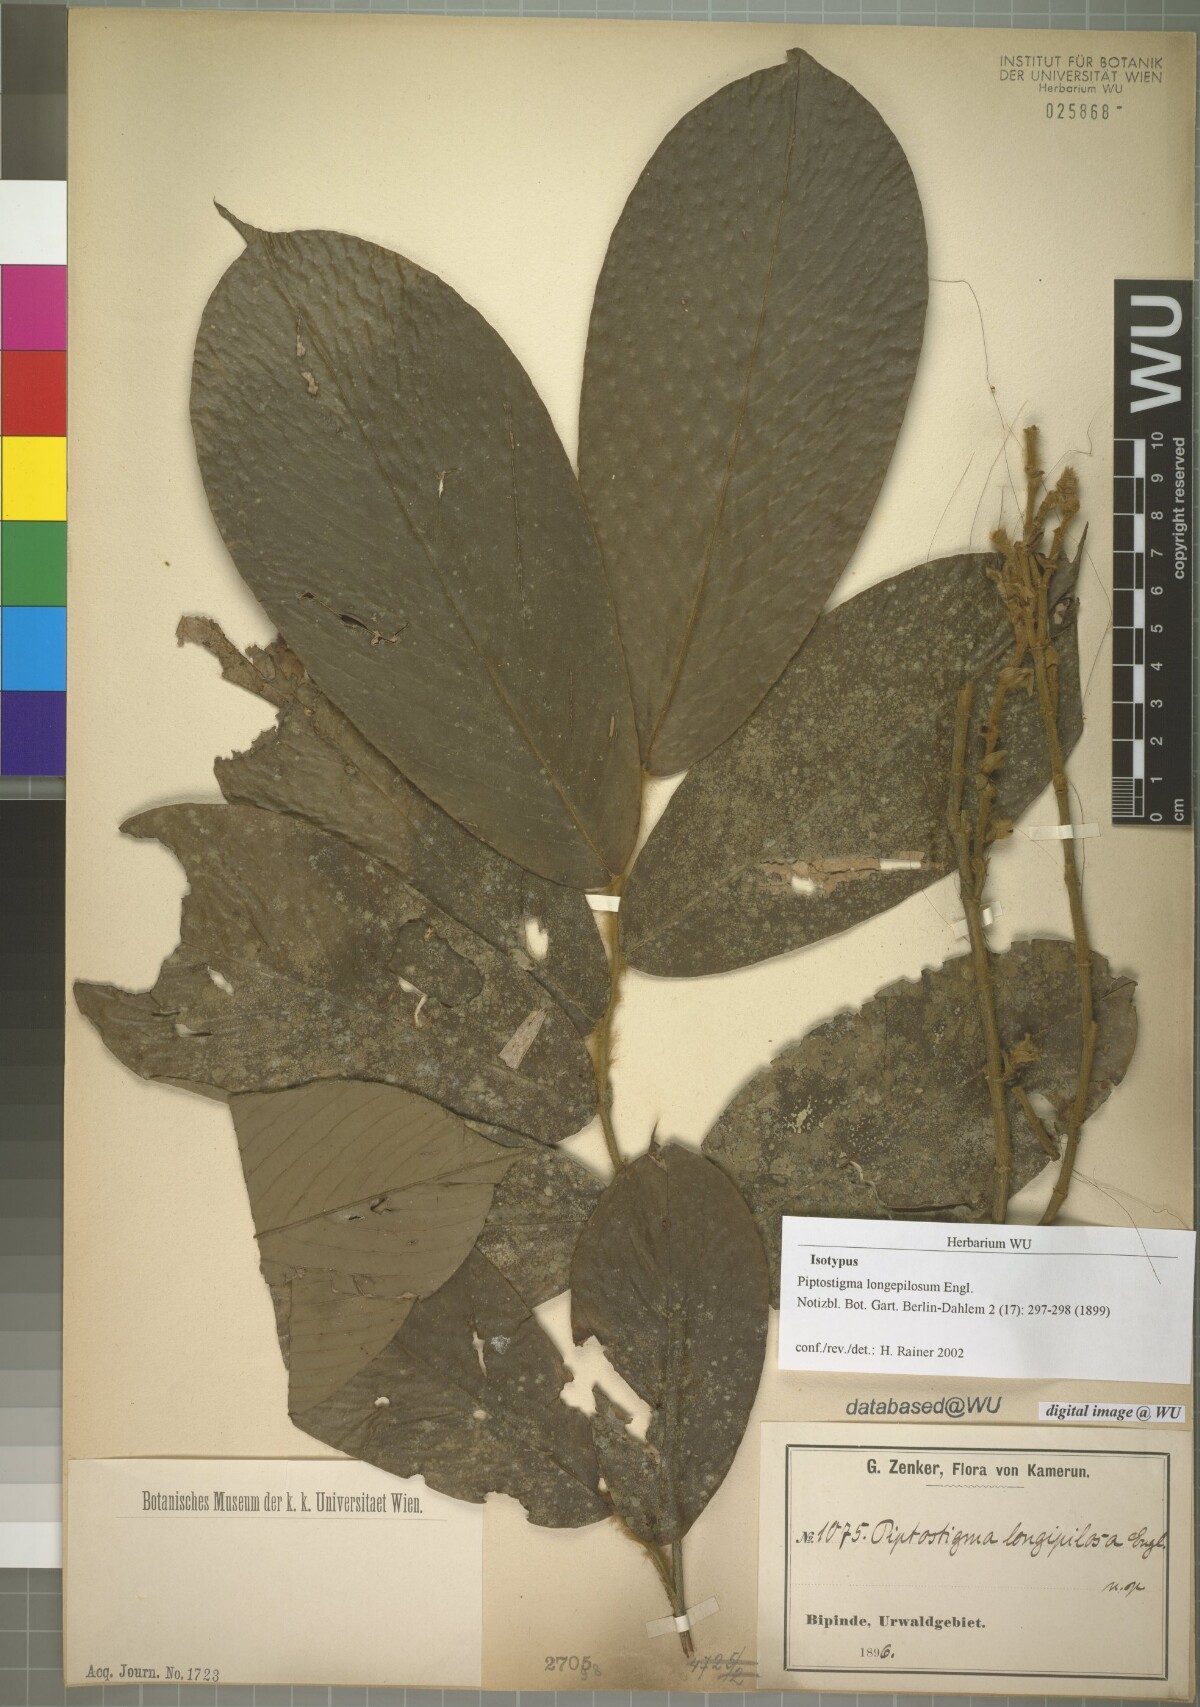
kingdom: Plantae
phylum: Tracheophyta
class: Magnoliopsida
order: Magnoliales
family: Annonaceae
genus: Piptostigma
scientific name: Piptostigma longepilosum
